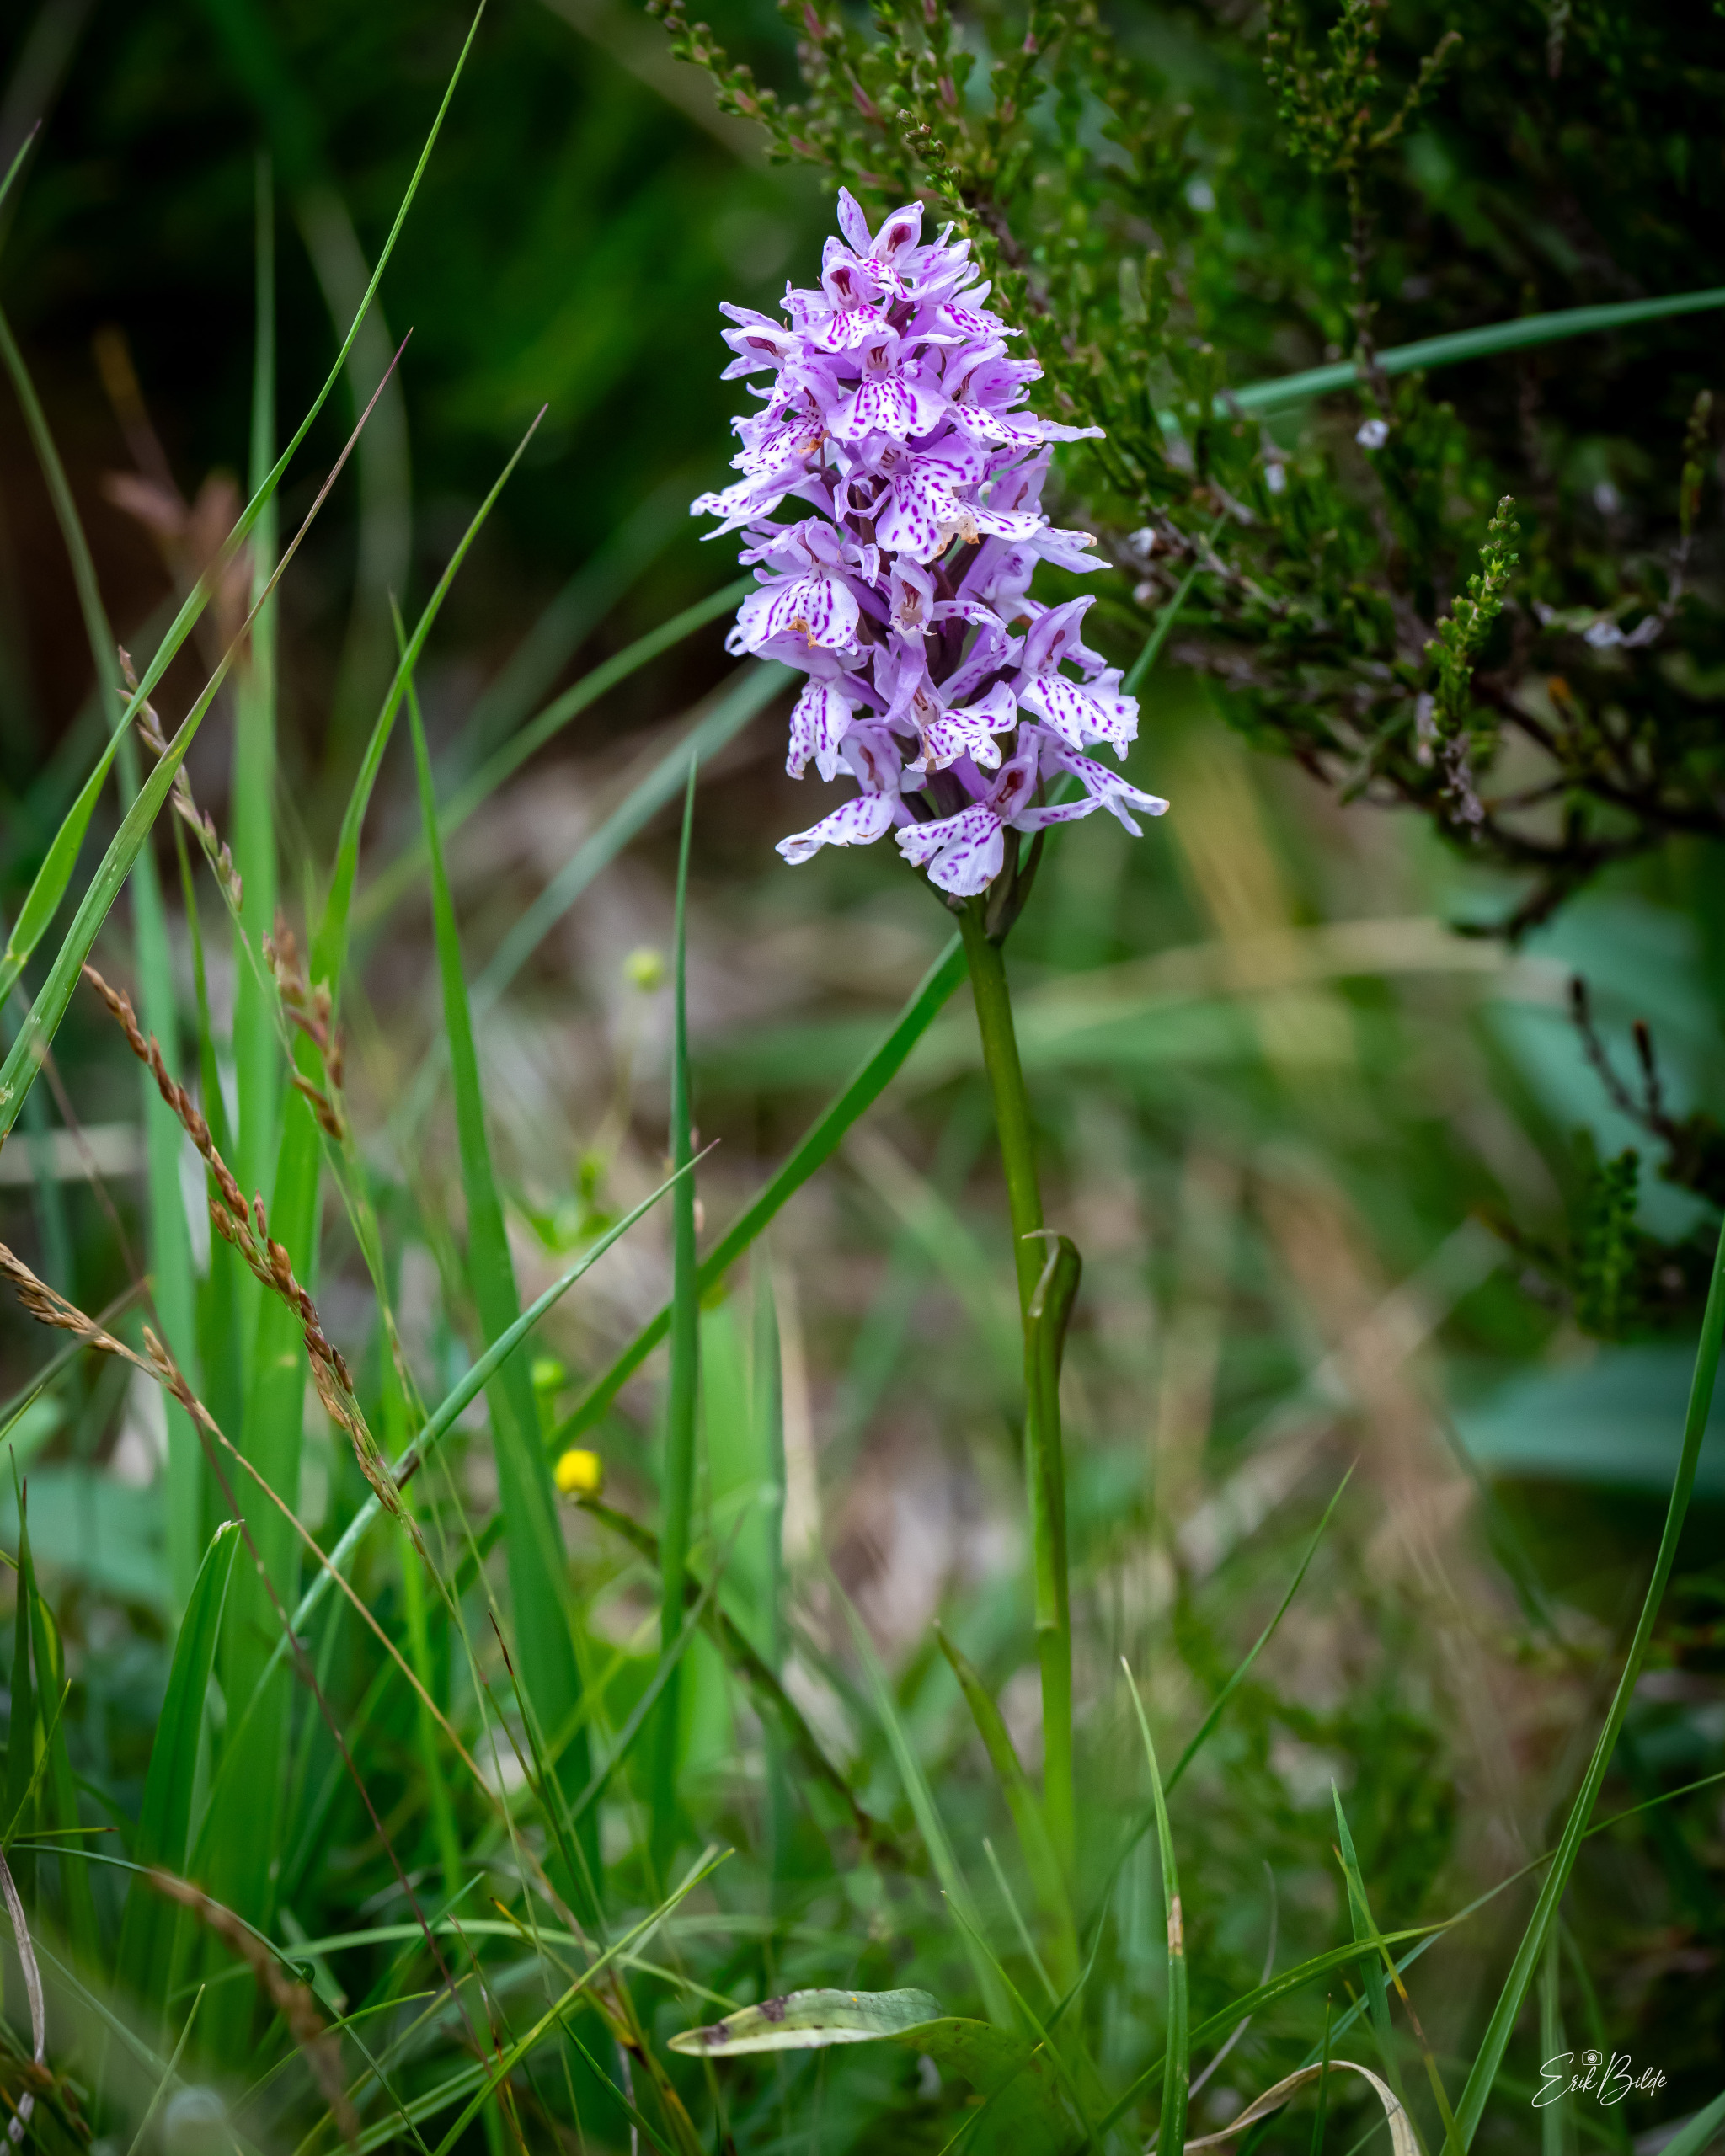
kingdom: Plantae
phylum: Tracheophyta
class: Liliopsida
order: Asparagales
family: Orchidaceae
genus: Dactylorhiza
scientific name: Dactylorhiza maculata
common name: Plettet gøgeurt (underart)
